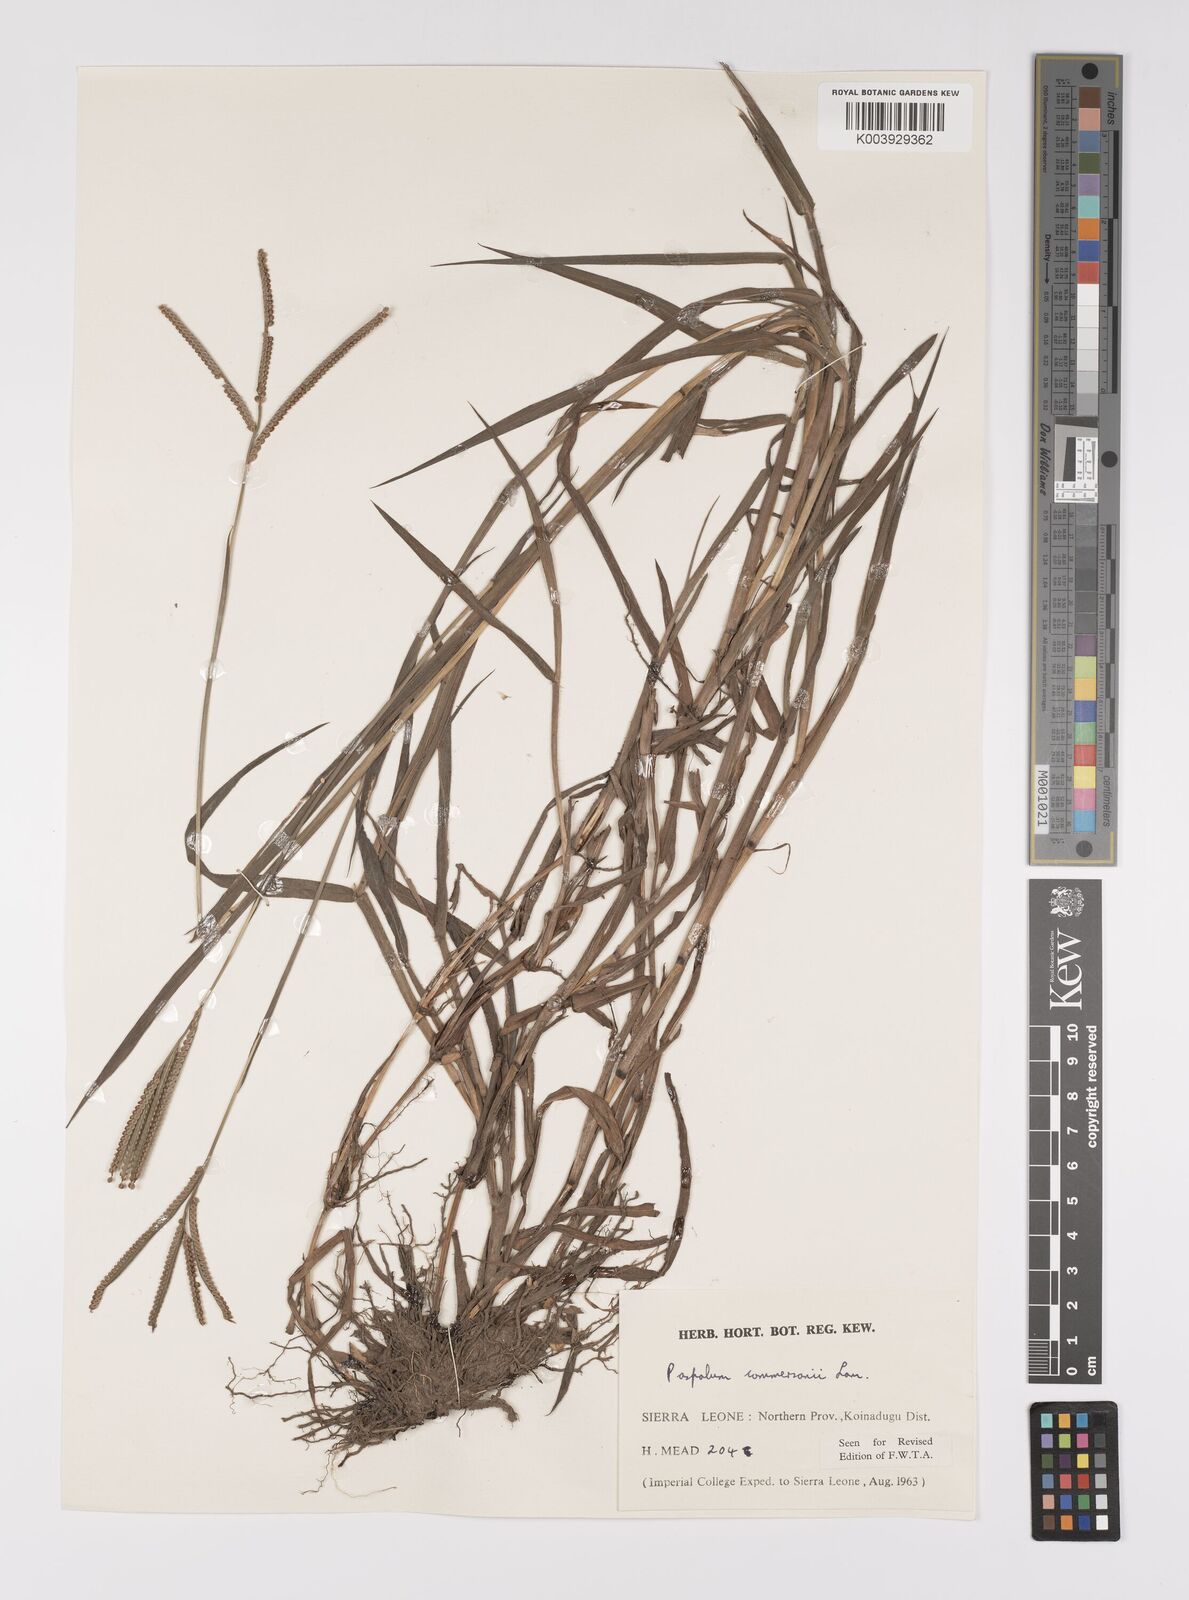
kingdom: Plantae
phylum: Tracheophyta
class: Liliopsida
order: Poales
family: Poaceae
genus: Paspalum
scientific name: Paspalum scrobiculatum
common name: Kodo millet
